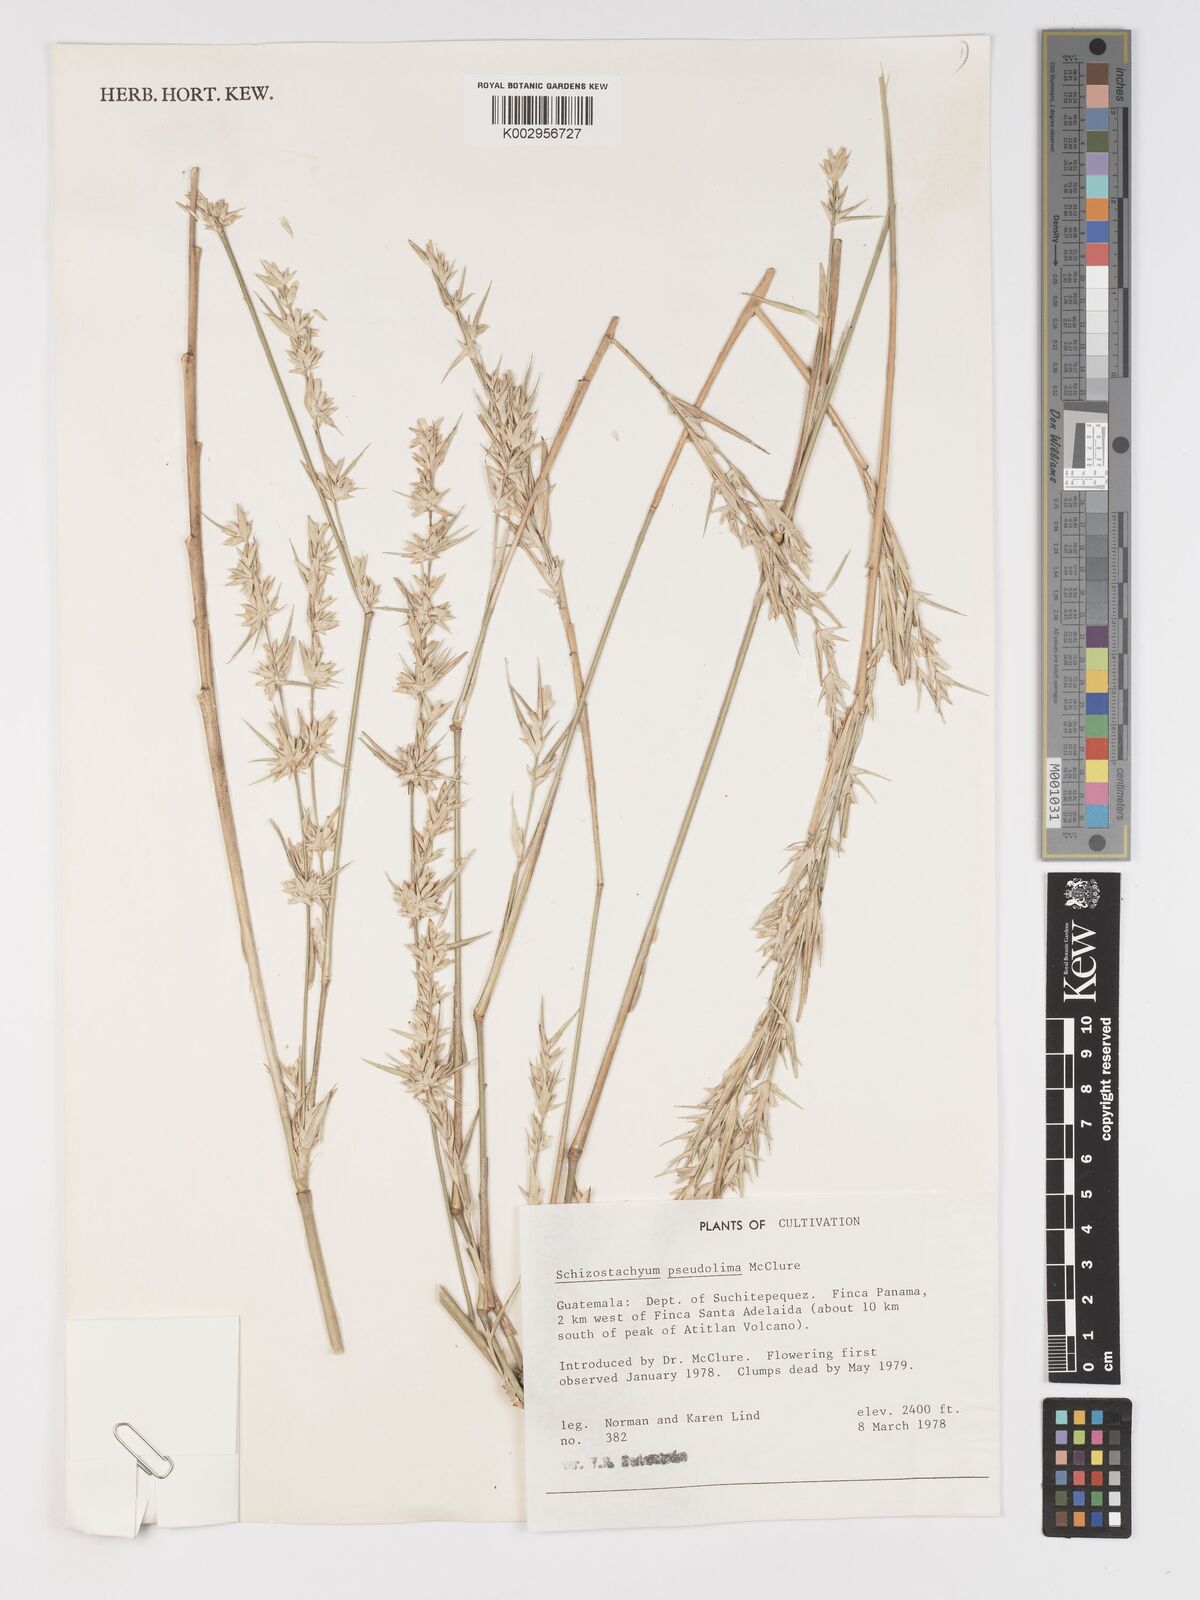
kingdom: Plantae
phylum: Tracheophyta
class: Liliopsida
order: Poales
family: Poaceae
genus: Schizostachyum
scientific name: Schizostachyum pseudolima
